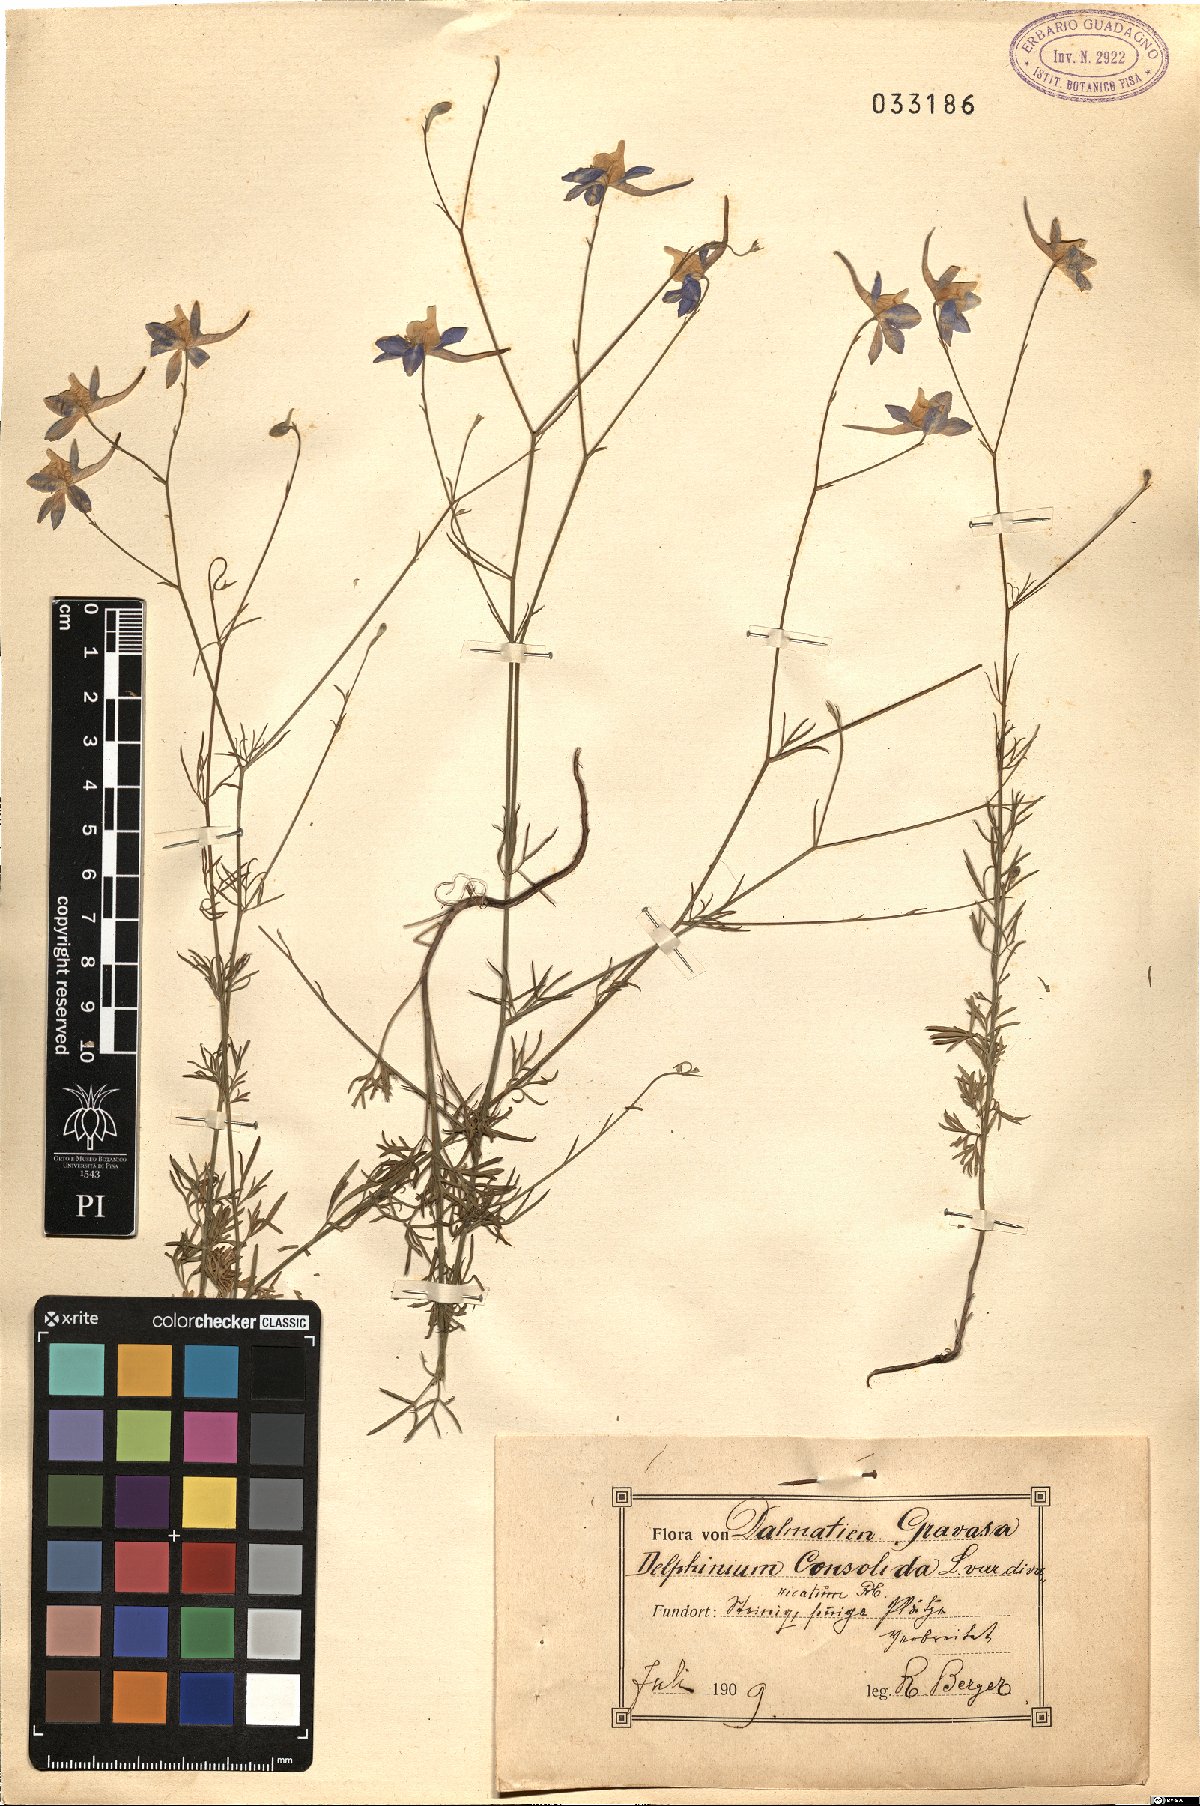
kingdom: Plantae
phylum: Tracheophyta
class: Magnoliopsida
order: Ranunculales
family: Ranunculaceae
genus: Delphinium
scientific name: Delphinium consolida
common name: Branching larkspur
